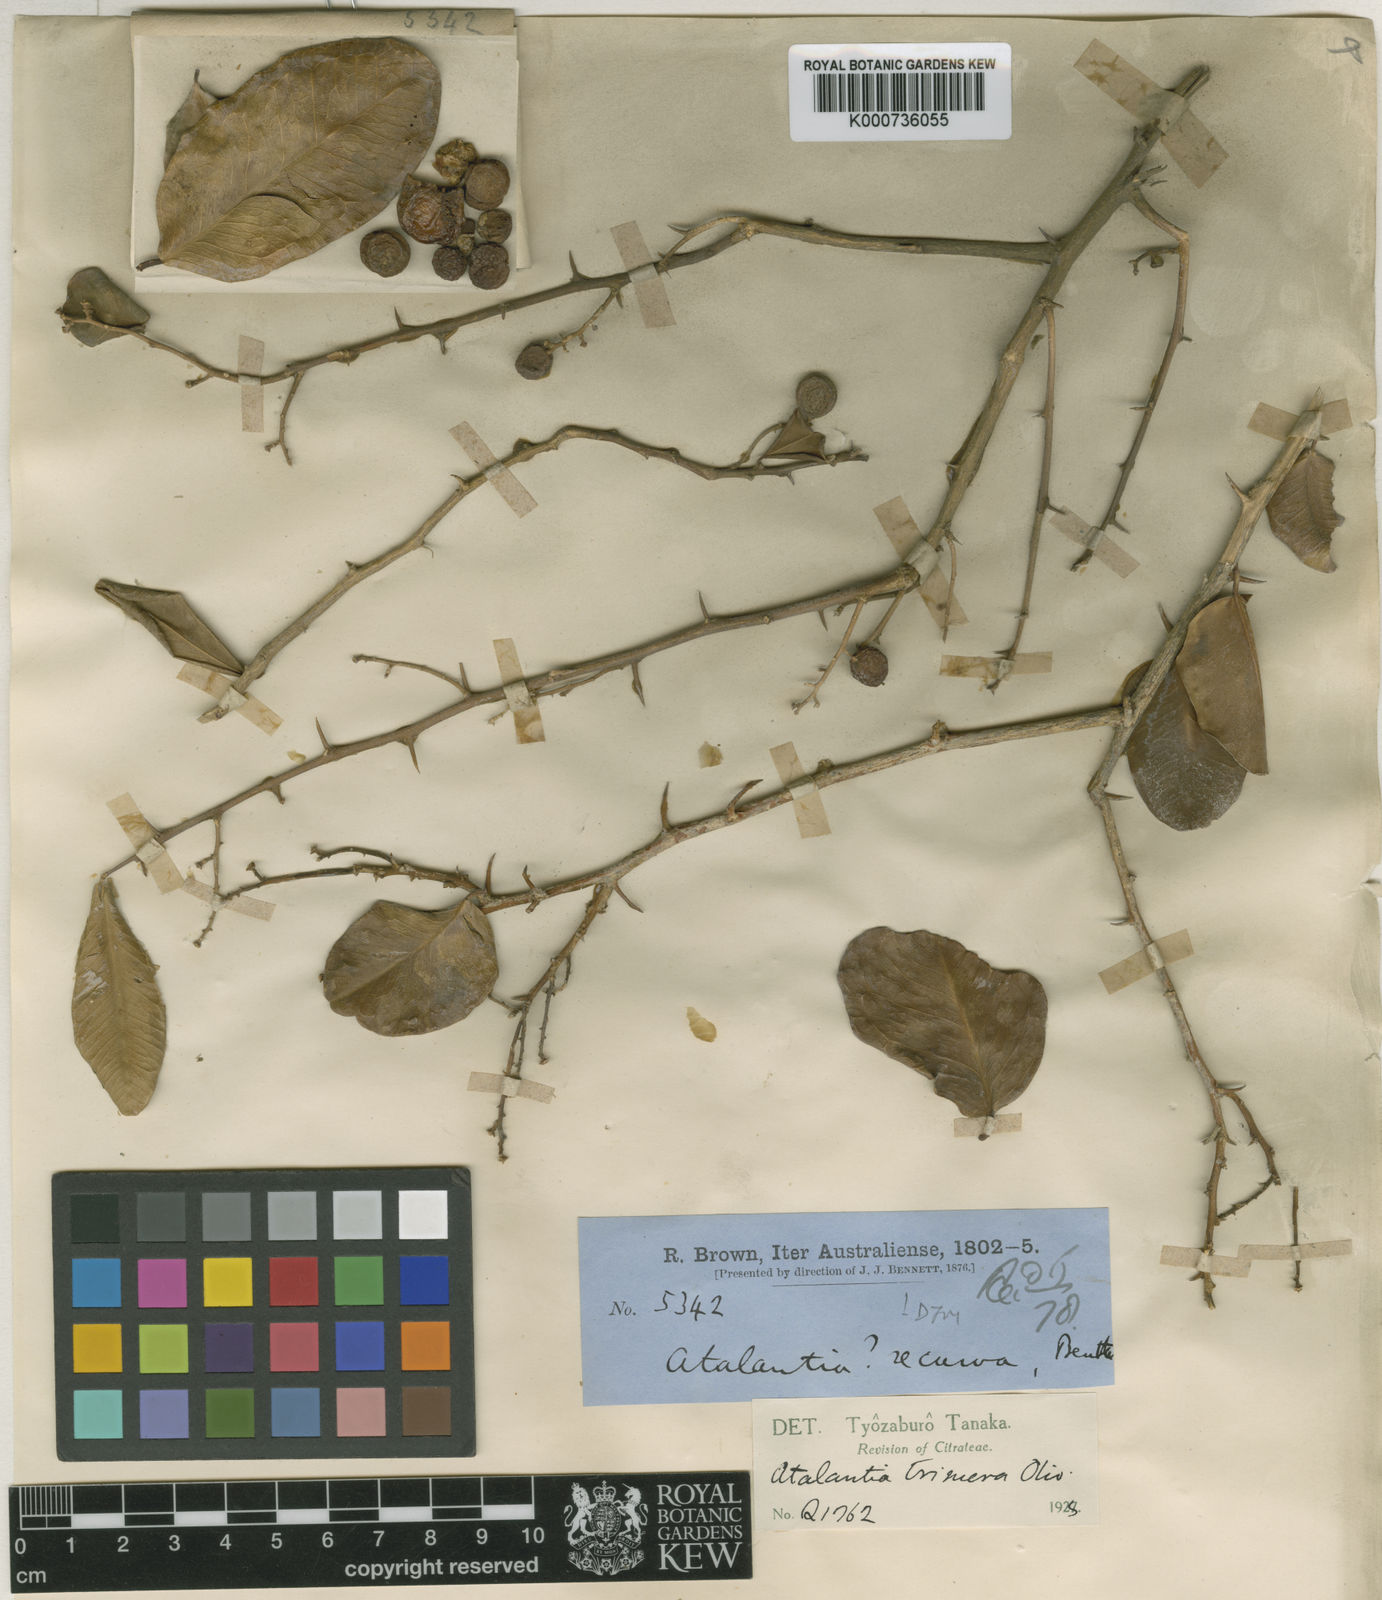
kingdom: Plantae
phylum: Tracheophyta
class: Magnoliopsida
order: Sapindales
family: Rutaceae
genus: Paramignya
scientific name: Paramignya
